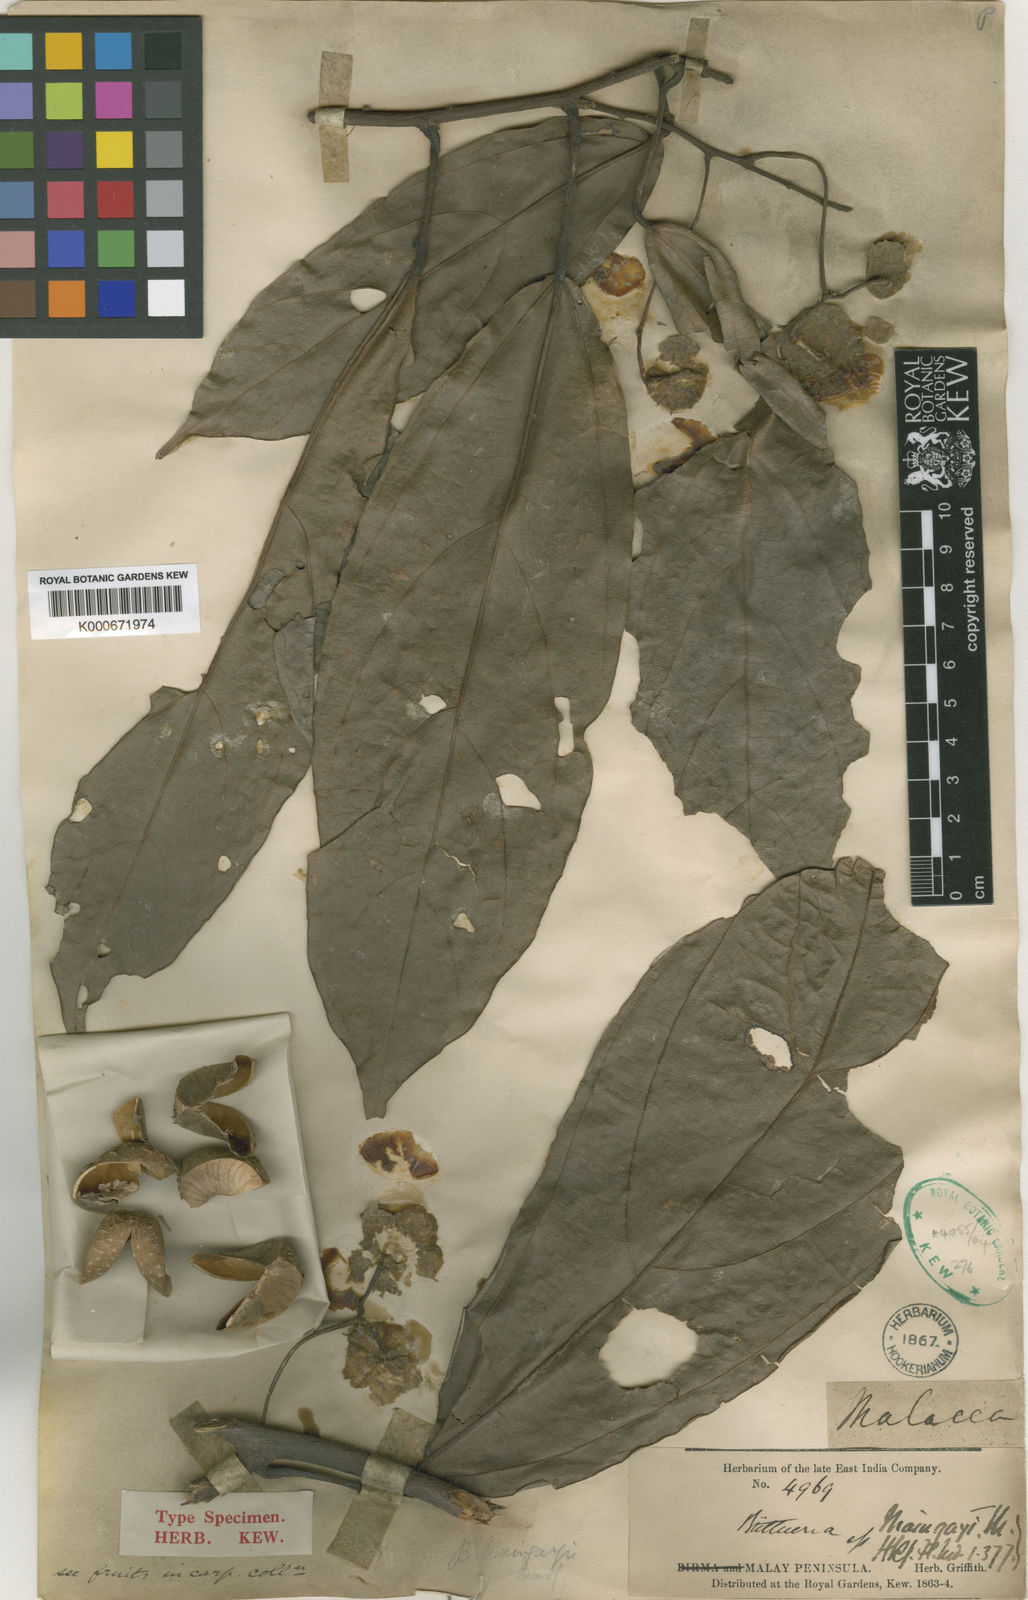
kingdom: Plantae
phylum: Tracheophyta
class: Magnoliopsida
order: Malvales
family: Malvaceae
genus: Byttneria
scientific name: Byttneria maingayi
